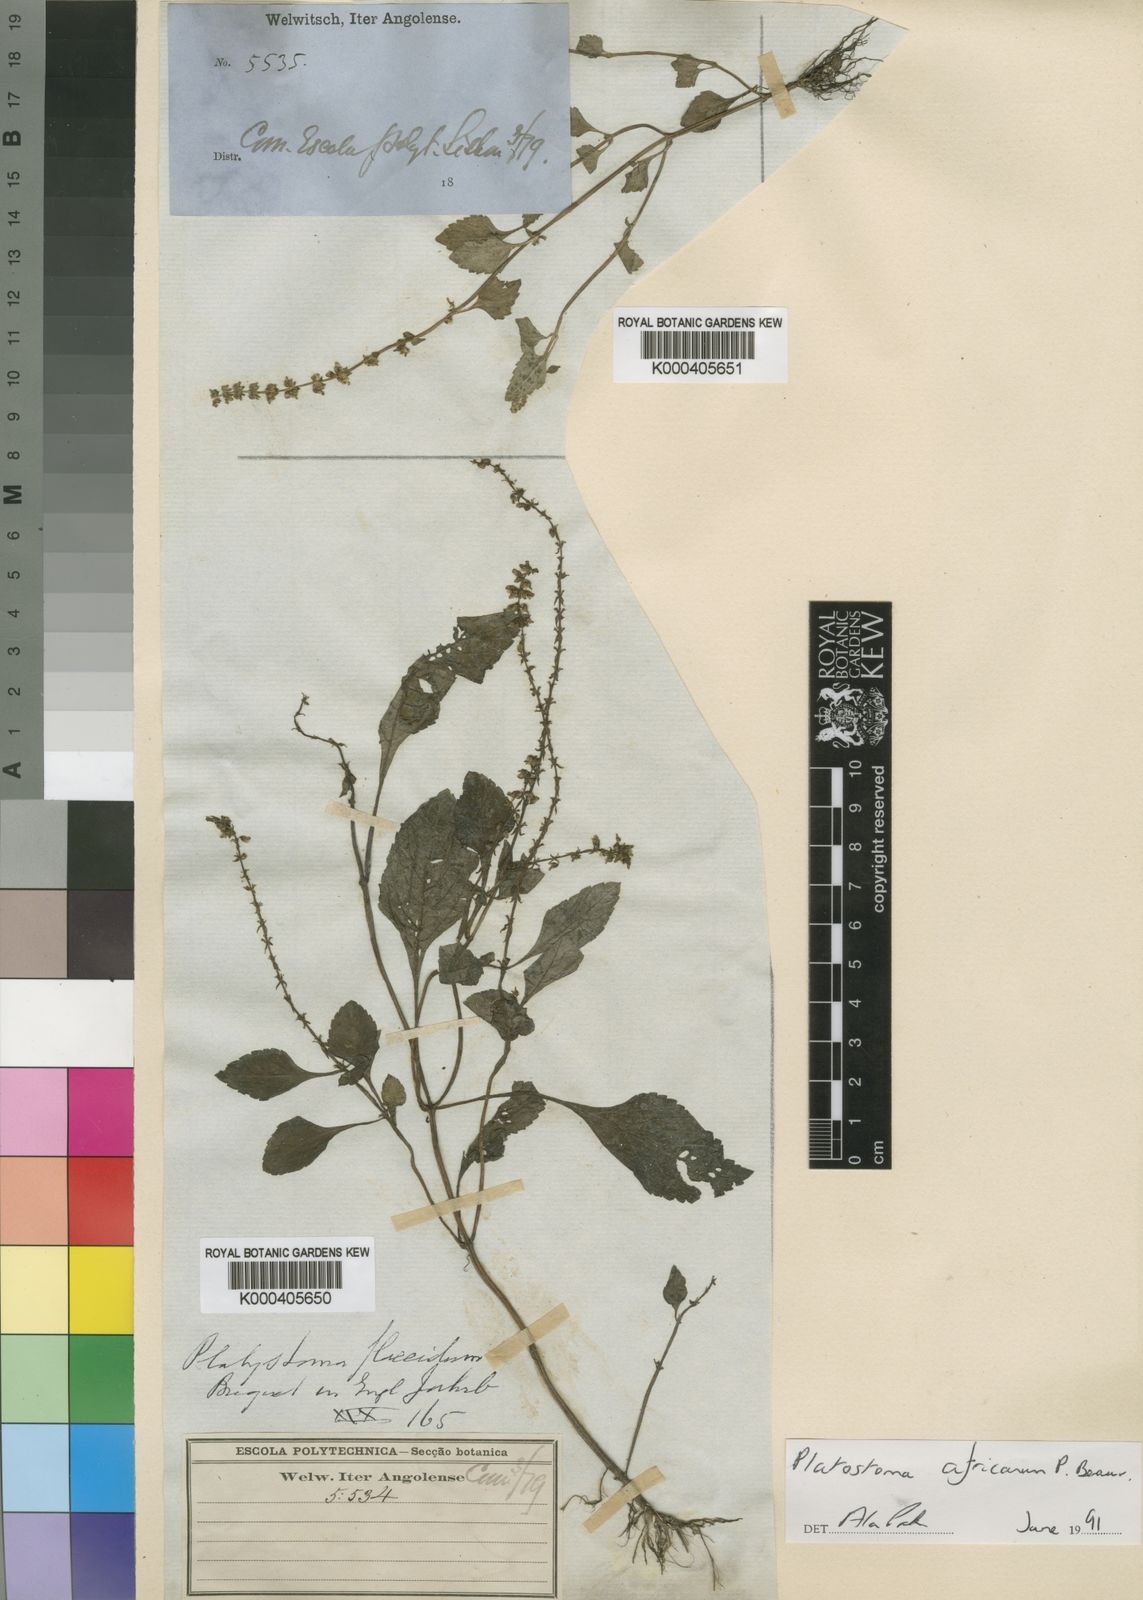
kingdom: Plantae
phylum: Tracheophyta
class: Magnoliopsida
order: Lamiales
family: Lamiaceae
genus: Platostoma
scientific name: Platostoma africanum
